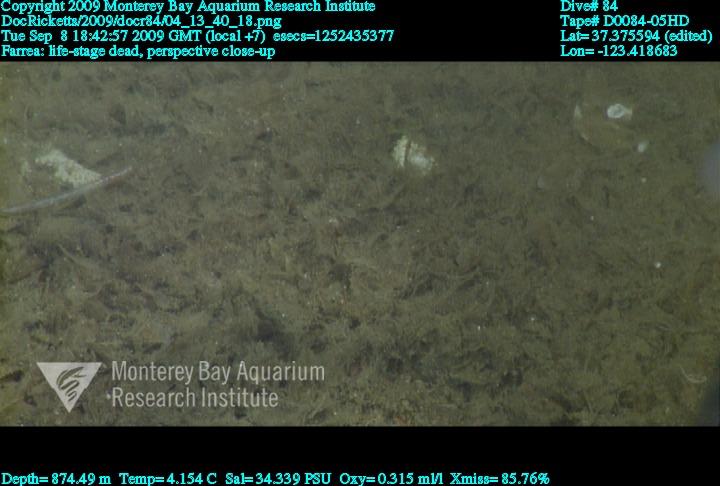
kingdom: Animalia
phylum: Porifera
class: Hexactinellida
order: Sceptrulophora
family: Farreidae
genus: Farrea
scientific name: Farrea
